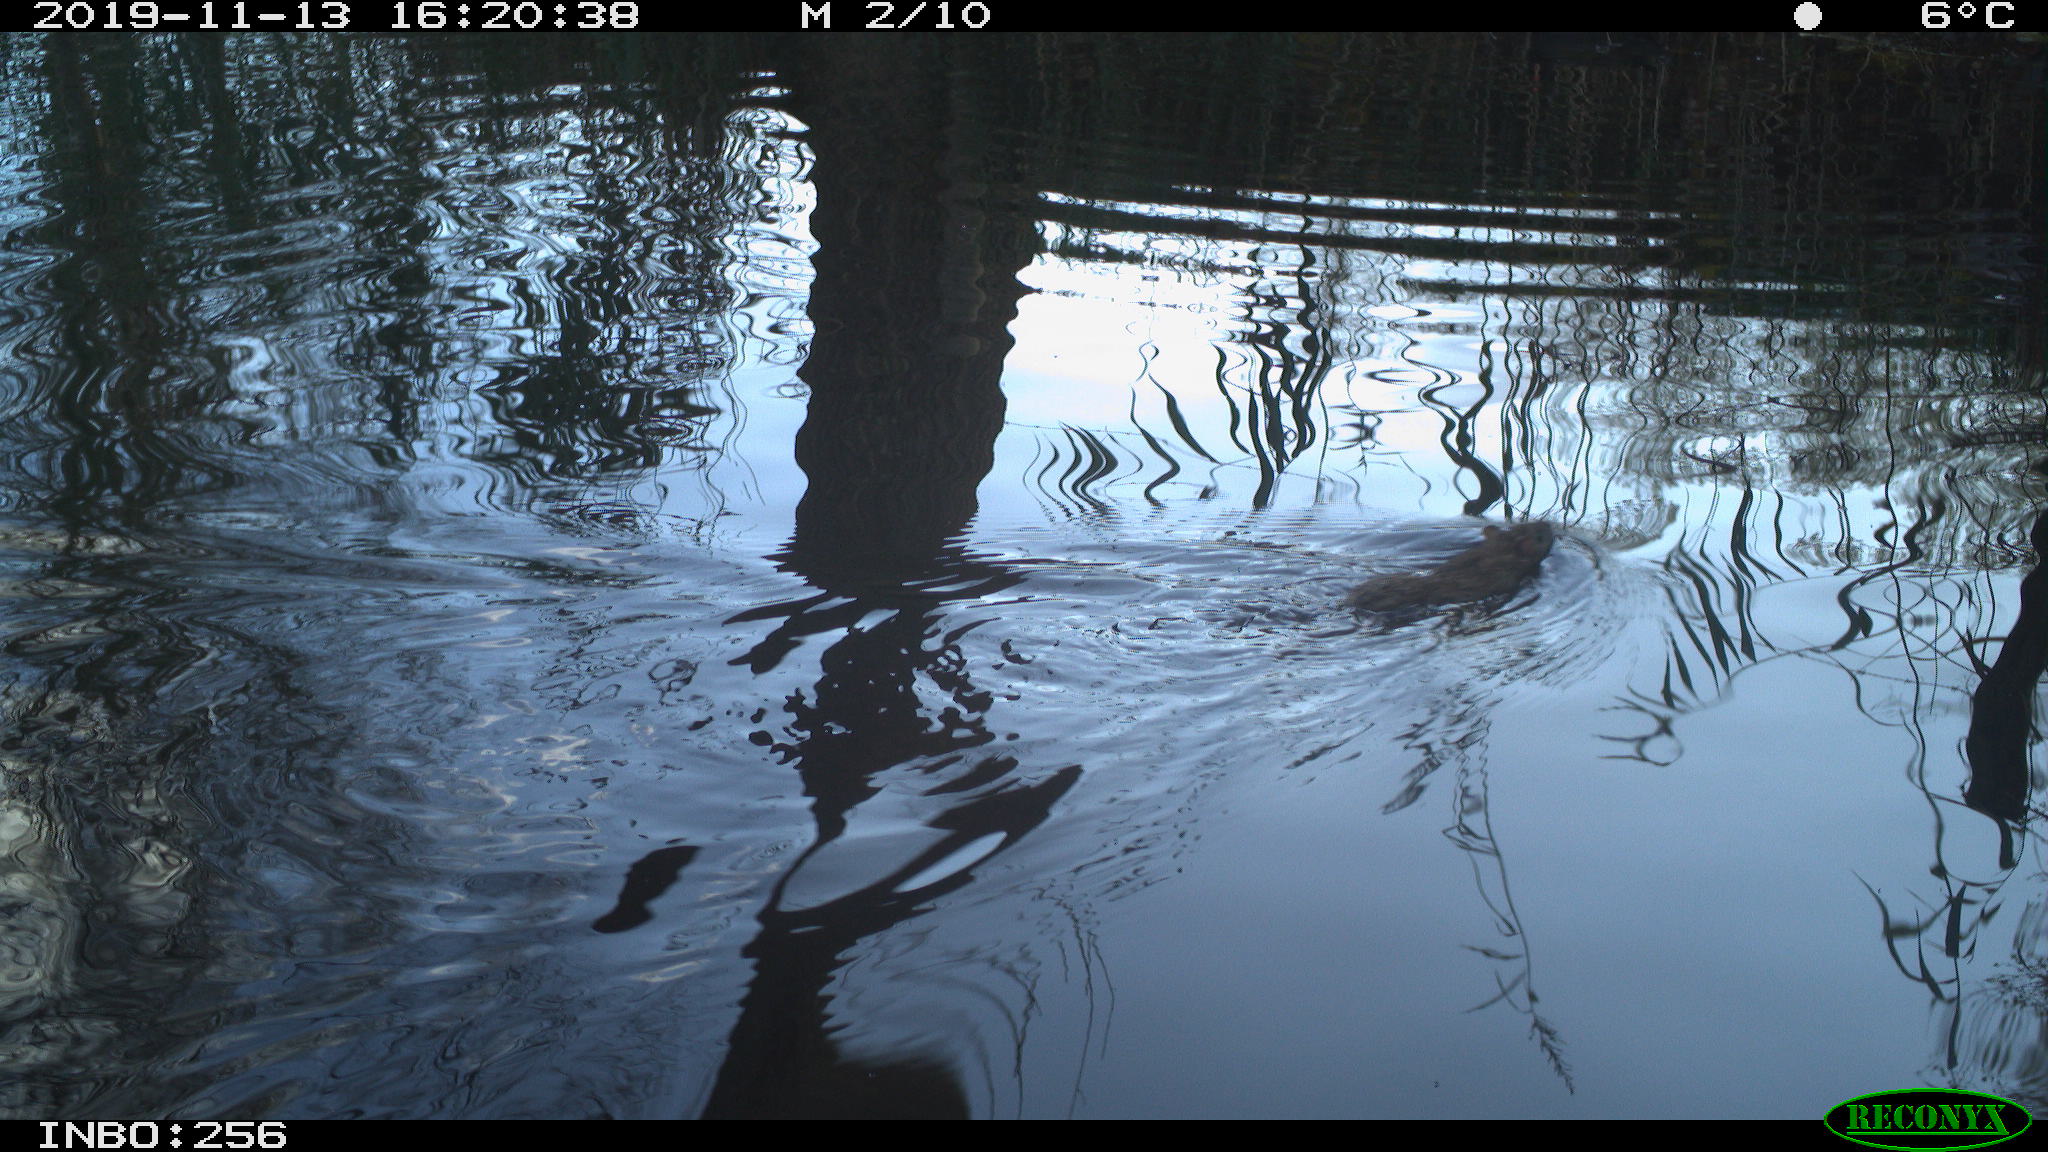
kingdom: Animalia
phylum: Chordata
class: Mammalia
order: Rodentia
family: Muridae
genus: Rattus
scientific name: Rattus norvegicus
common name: Brown rat
